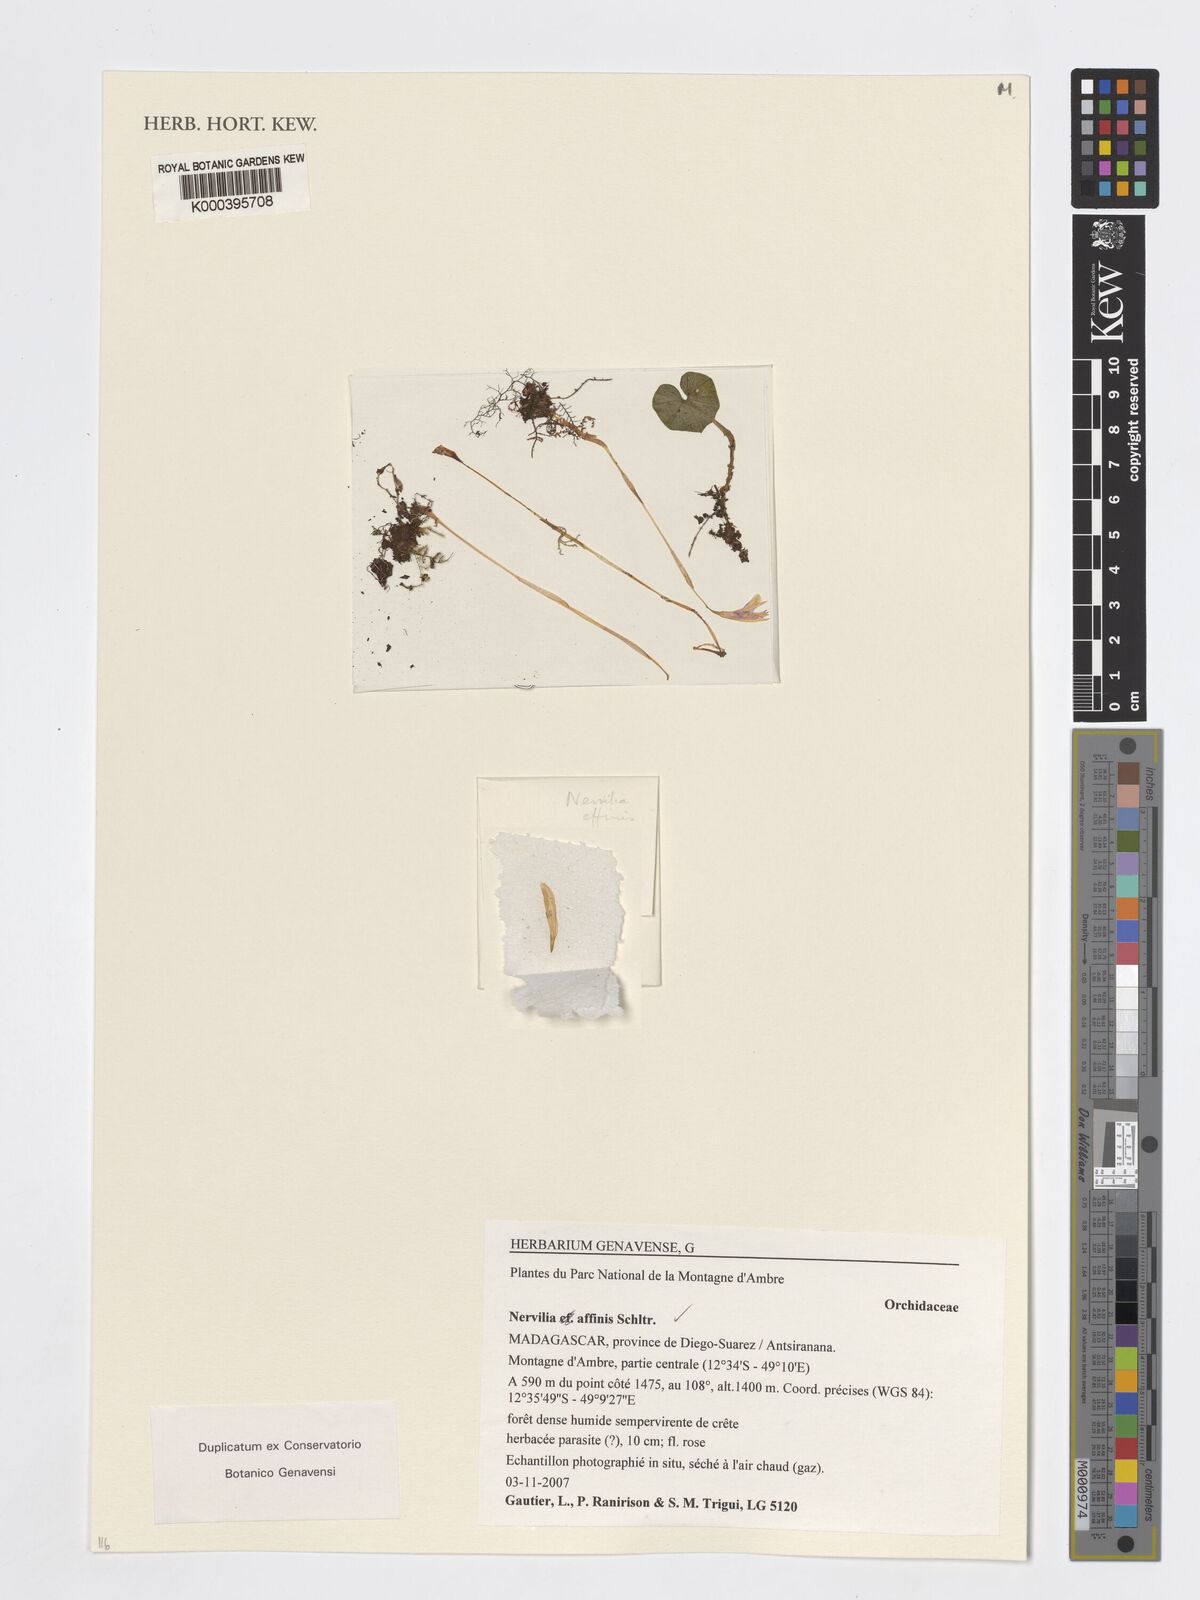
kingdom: Plantae
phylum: Tracheophyta
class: Liliopsida
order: Asparagales
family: Orchidaceae
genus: Nervilia
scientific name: Nervilia affinis
